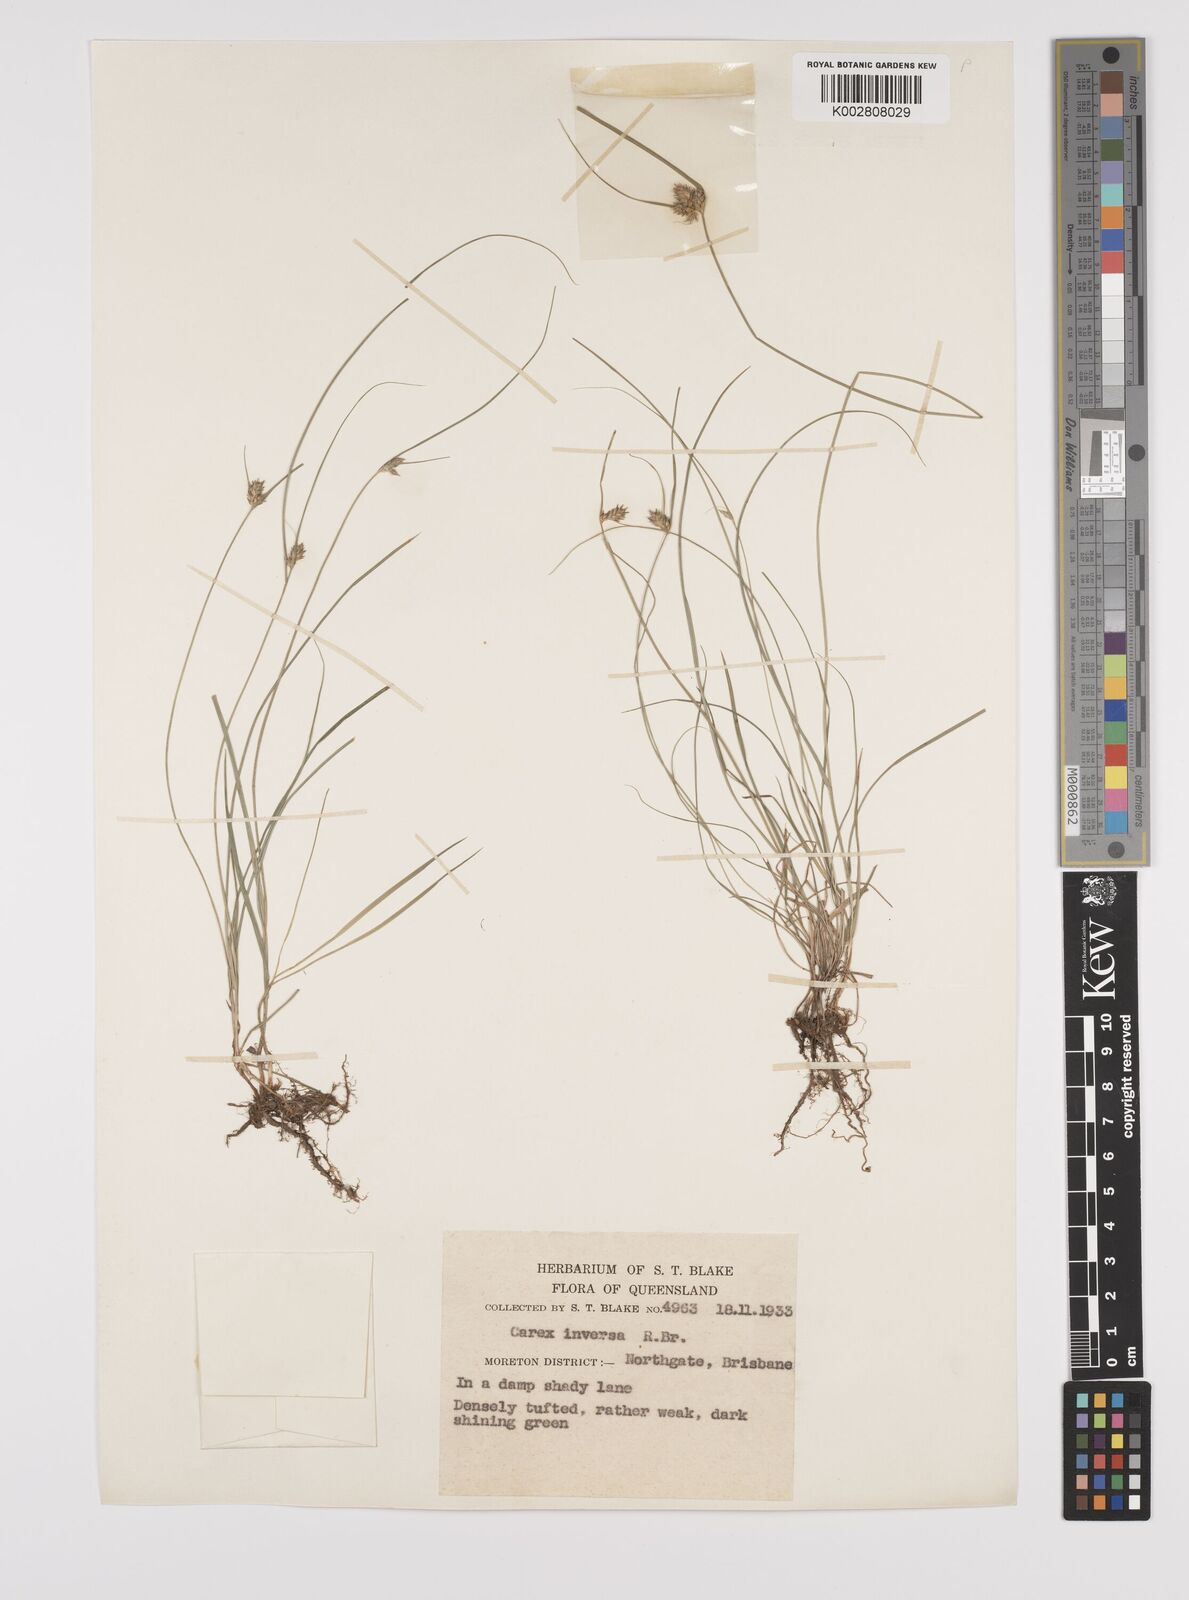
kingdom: Plantae
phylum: Tracheophyta
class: Liliopsida
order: Poales
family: Cyperaceae
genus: Carex
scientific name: Carex inversa
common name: Knob sedge
